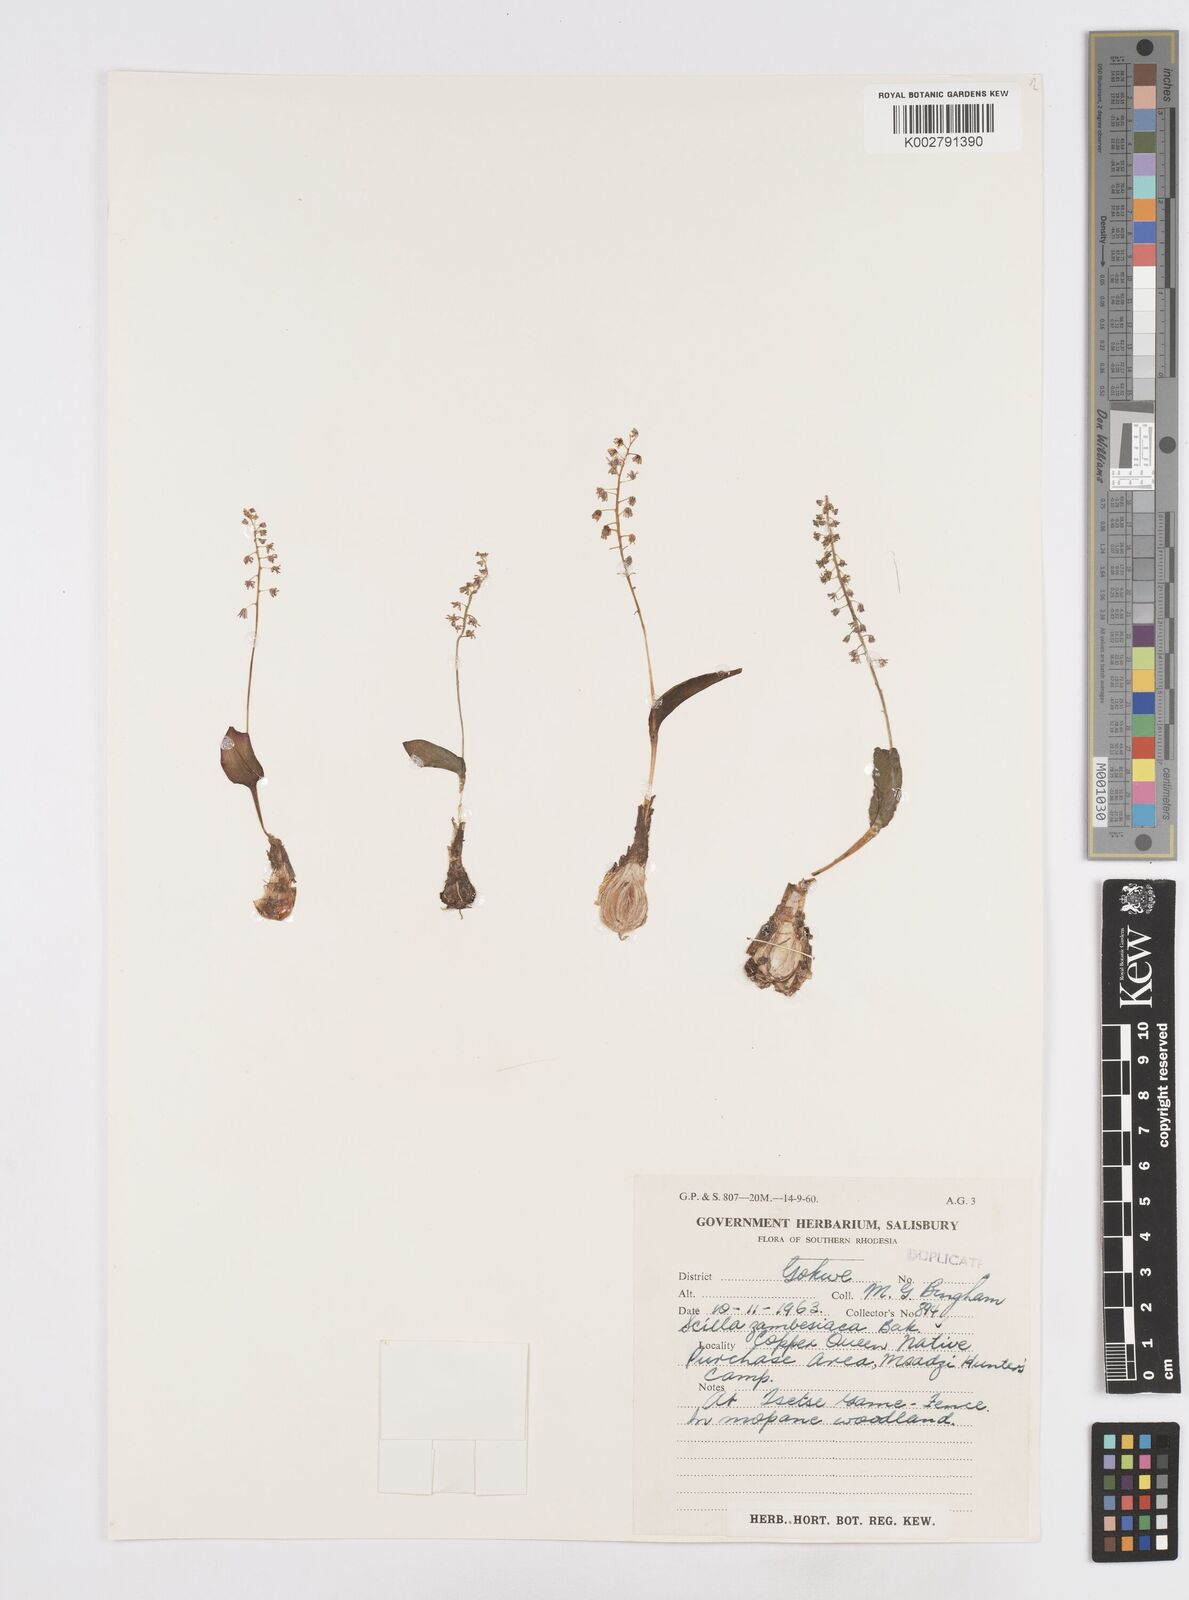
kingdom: Plantae
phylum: Tracheophyta
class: Liliopsida
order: Asparagales
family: Asparagaceae
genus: Ledebouria
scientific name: Ledebouria zambesiaca
